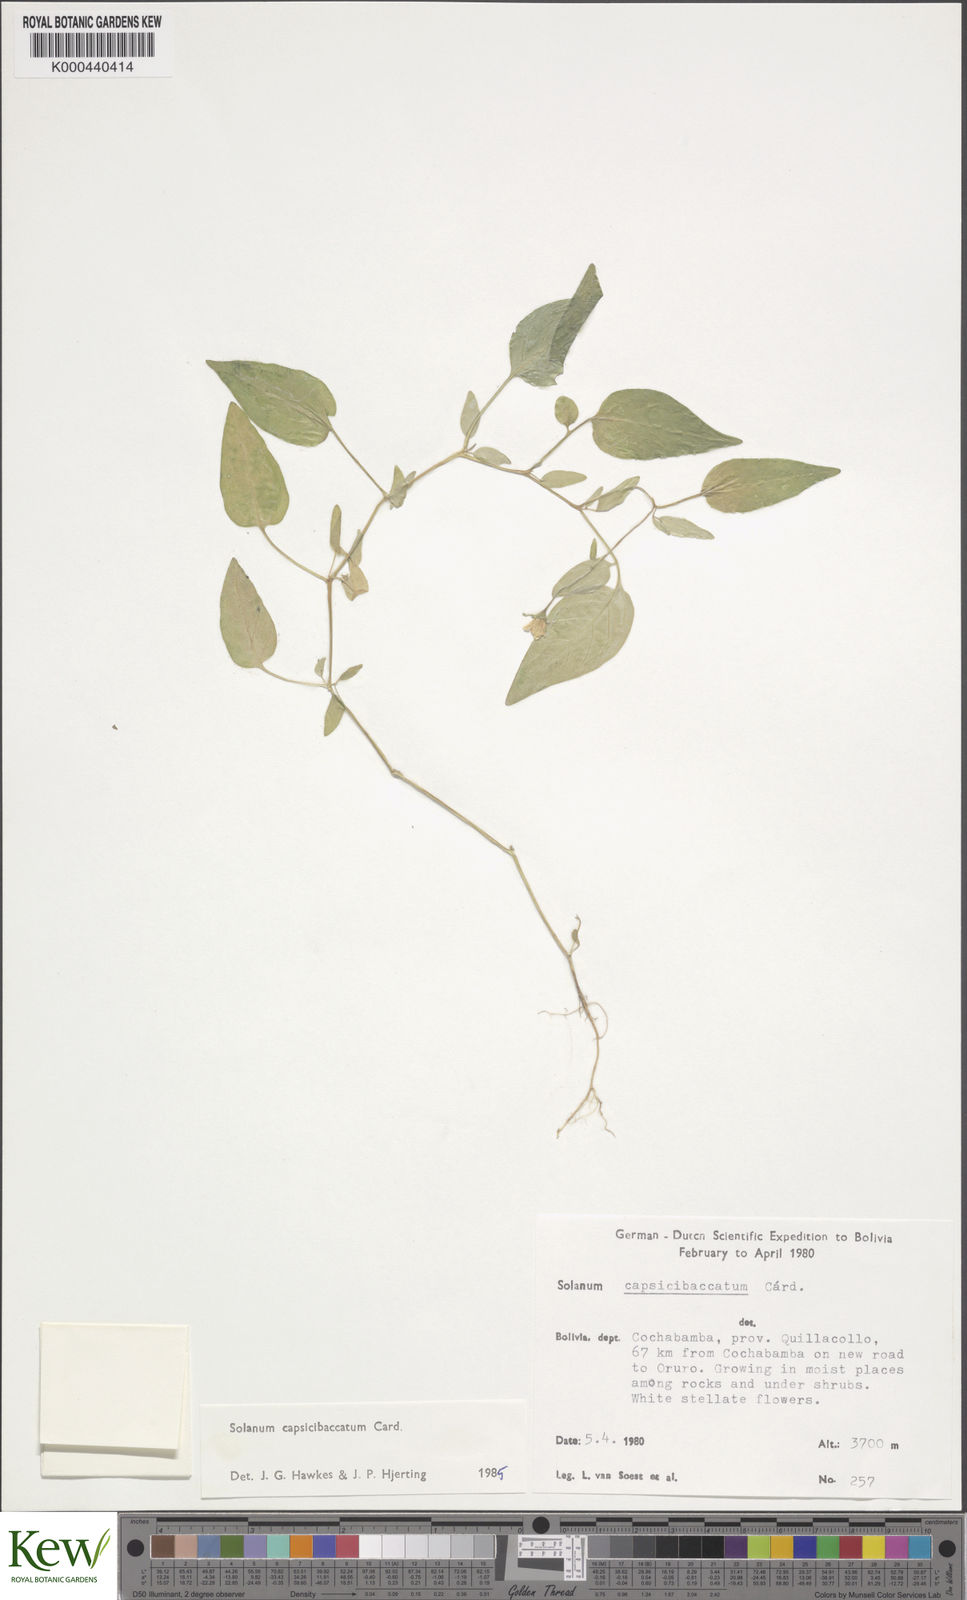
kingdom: Plantae
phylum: Tracheophyta
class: Magnoliopsida
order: Solanales
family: Solanaceae
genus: Solanum
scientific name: Solanum stipuloideum
